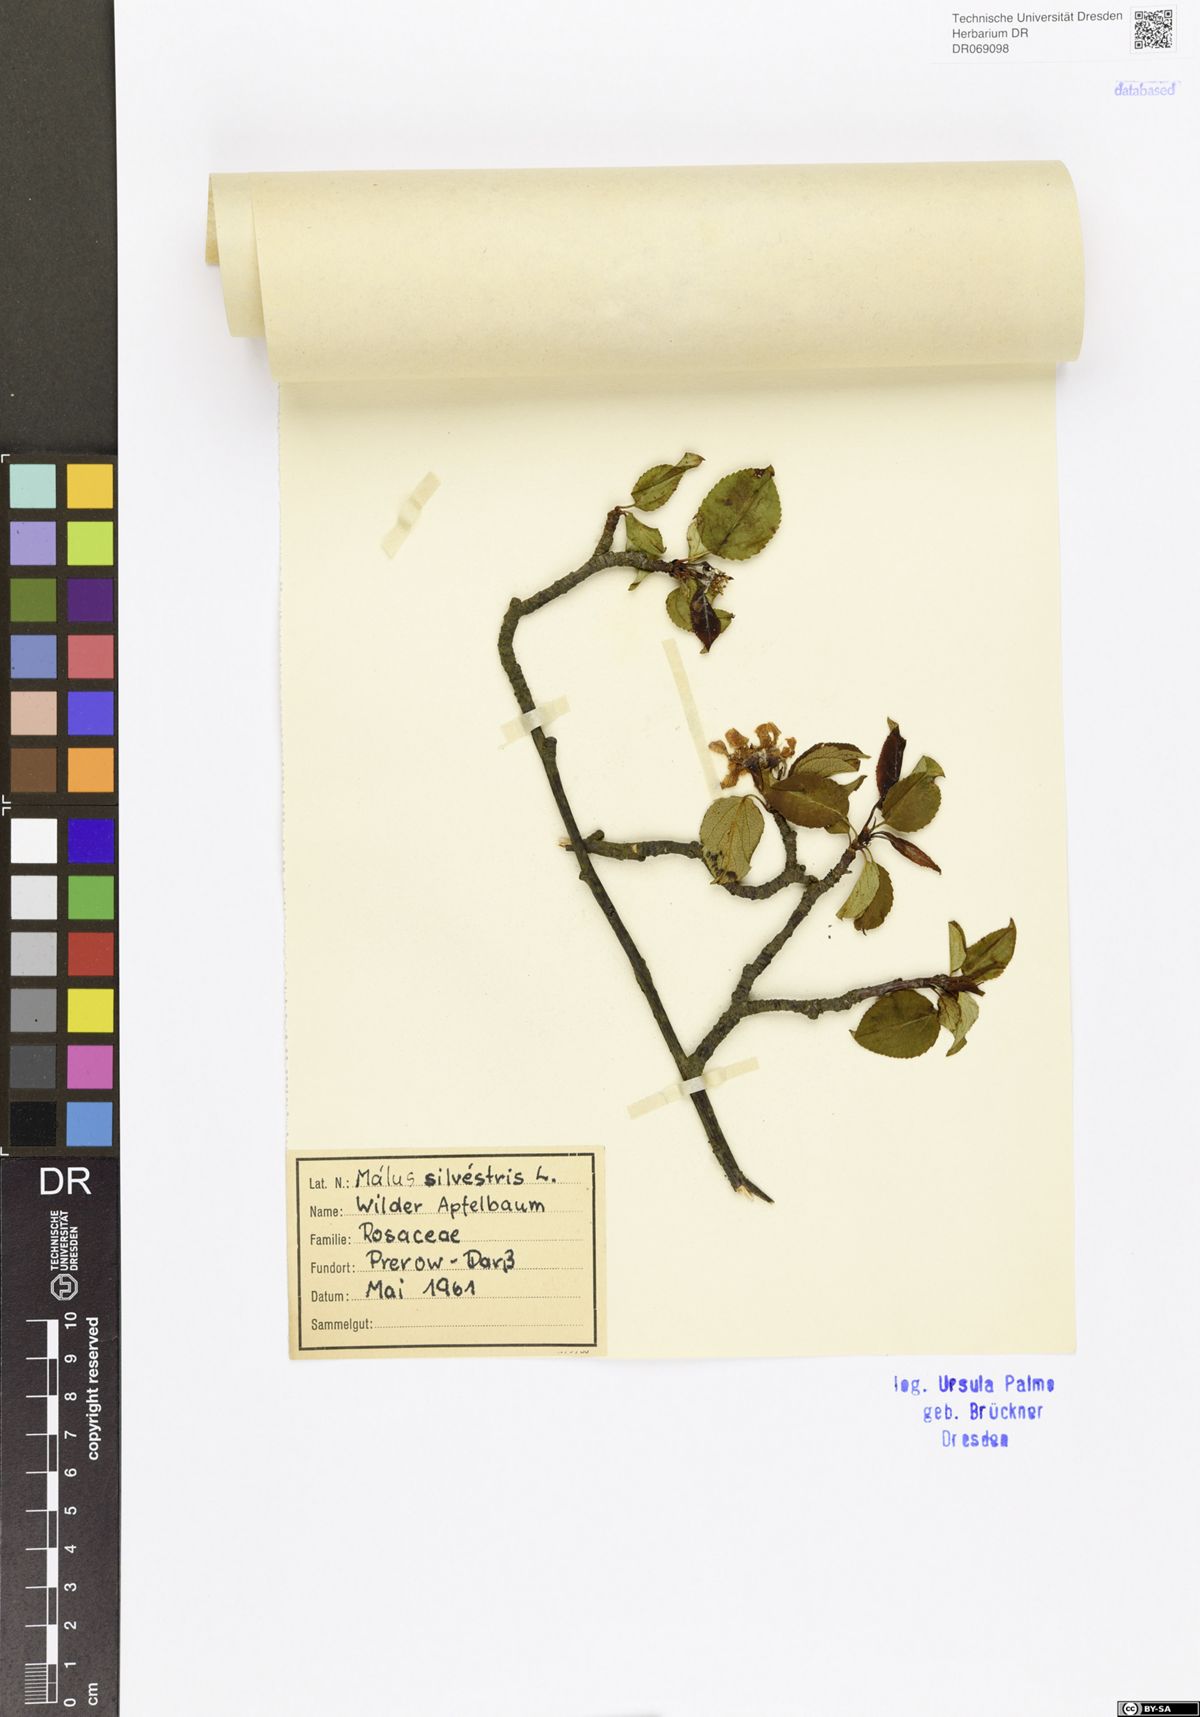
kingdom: Plantae
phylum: Tracheophyta
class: Magnoliopsida
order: Rosales
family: Rosaceae
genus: Malus
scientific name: Malus
